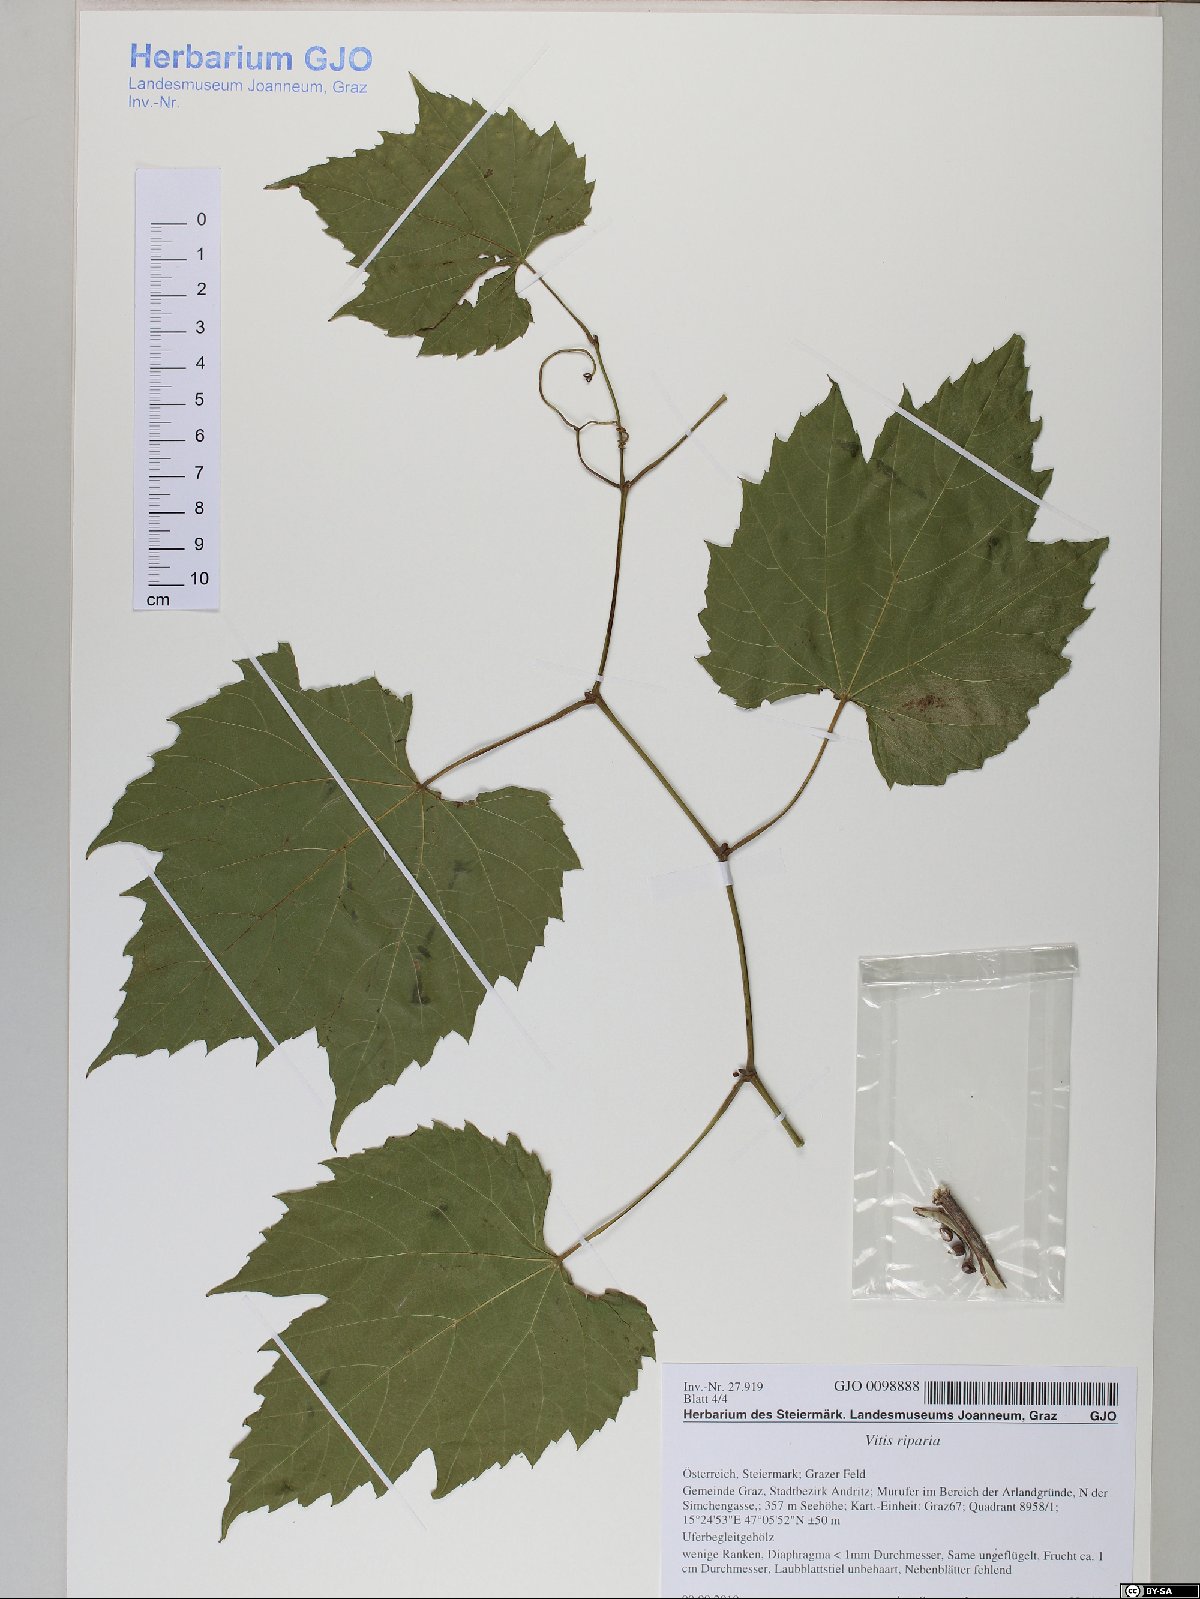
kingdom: Plantae
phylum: Tracheophyta
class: Magnoliopsida
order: Vitales
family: Vitaceae
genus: Vitis
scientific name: Vitis riparia
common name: Frost grape
